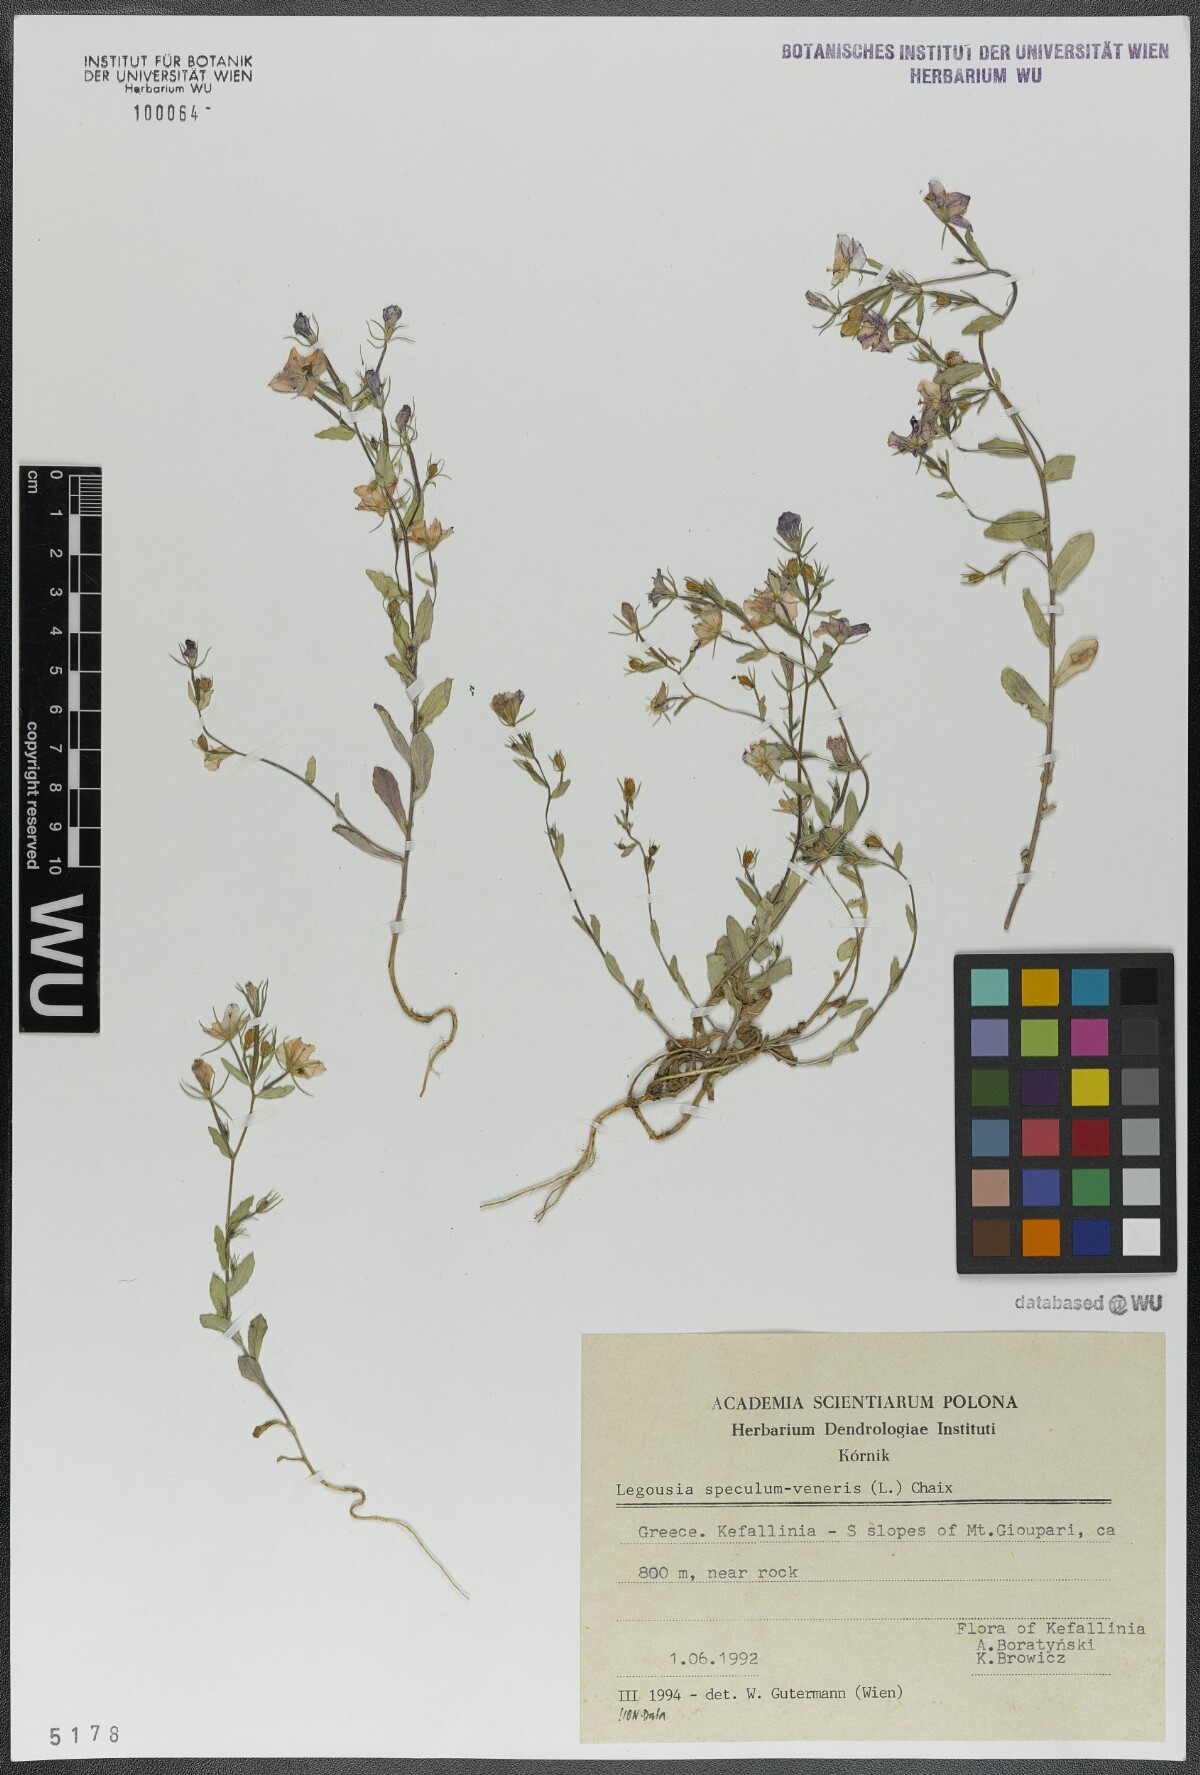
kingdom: Plantae
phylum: Tracheophyta
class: Magnoliopsida
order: Asterales
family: Campanulaceae
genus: Legousia
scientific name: Legousia speculum-veneris
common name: Large venus's-looking-glass
